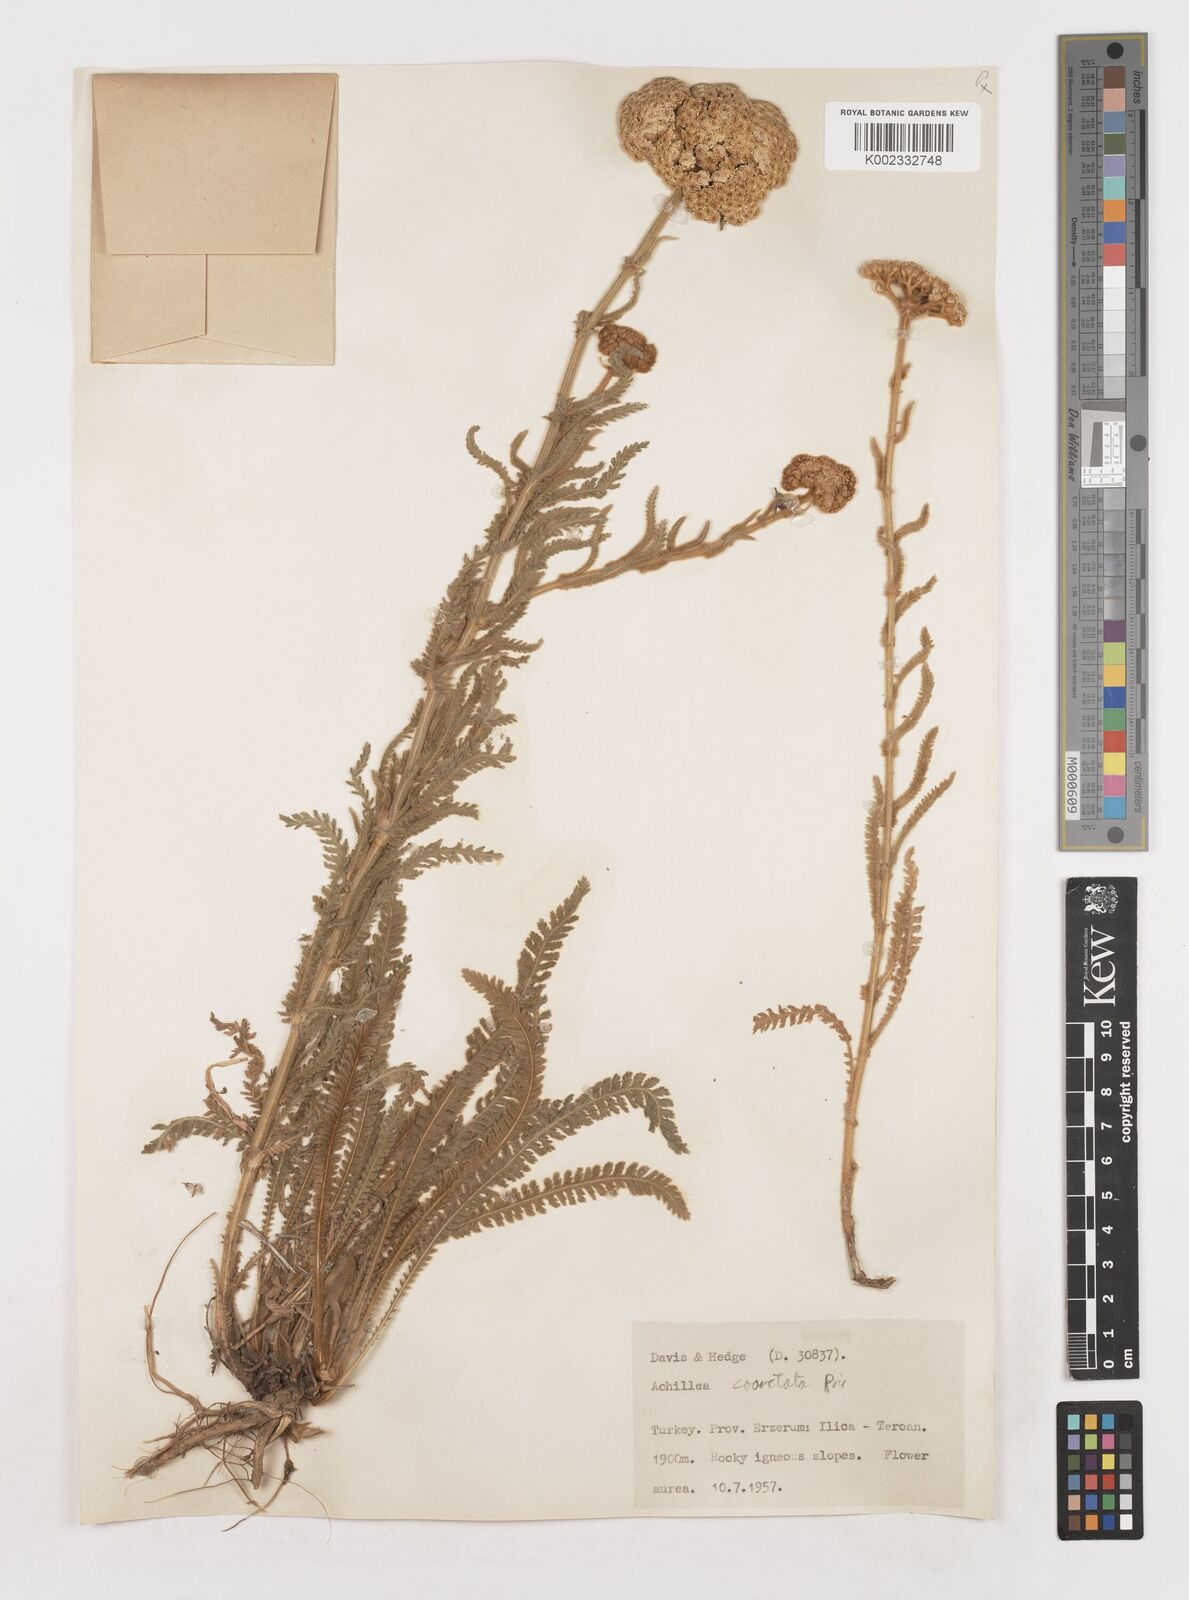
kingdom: Plantae
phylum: Tracheophyta
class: Magnoliopsida
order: Asterales
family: Asteraceae
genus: Achillea
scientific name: Achillea coarctata
